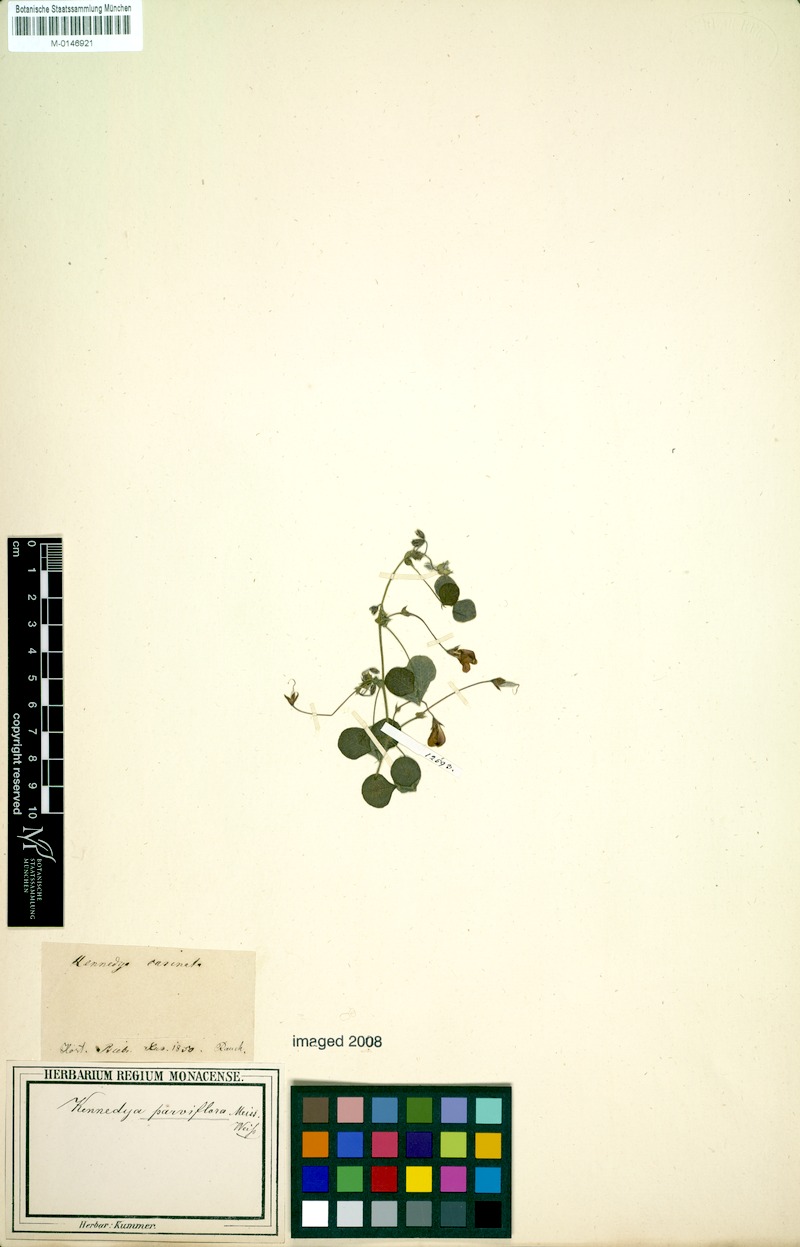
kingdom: Plantae
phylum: Tracheophyta
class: Magnoliopsida
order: Fabales
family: Fabaceae
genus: Kennedia
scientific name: Kennedia parviflora
